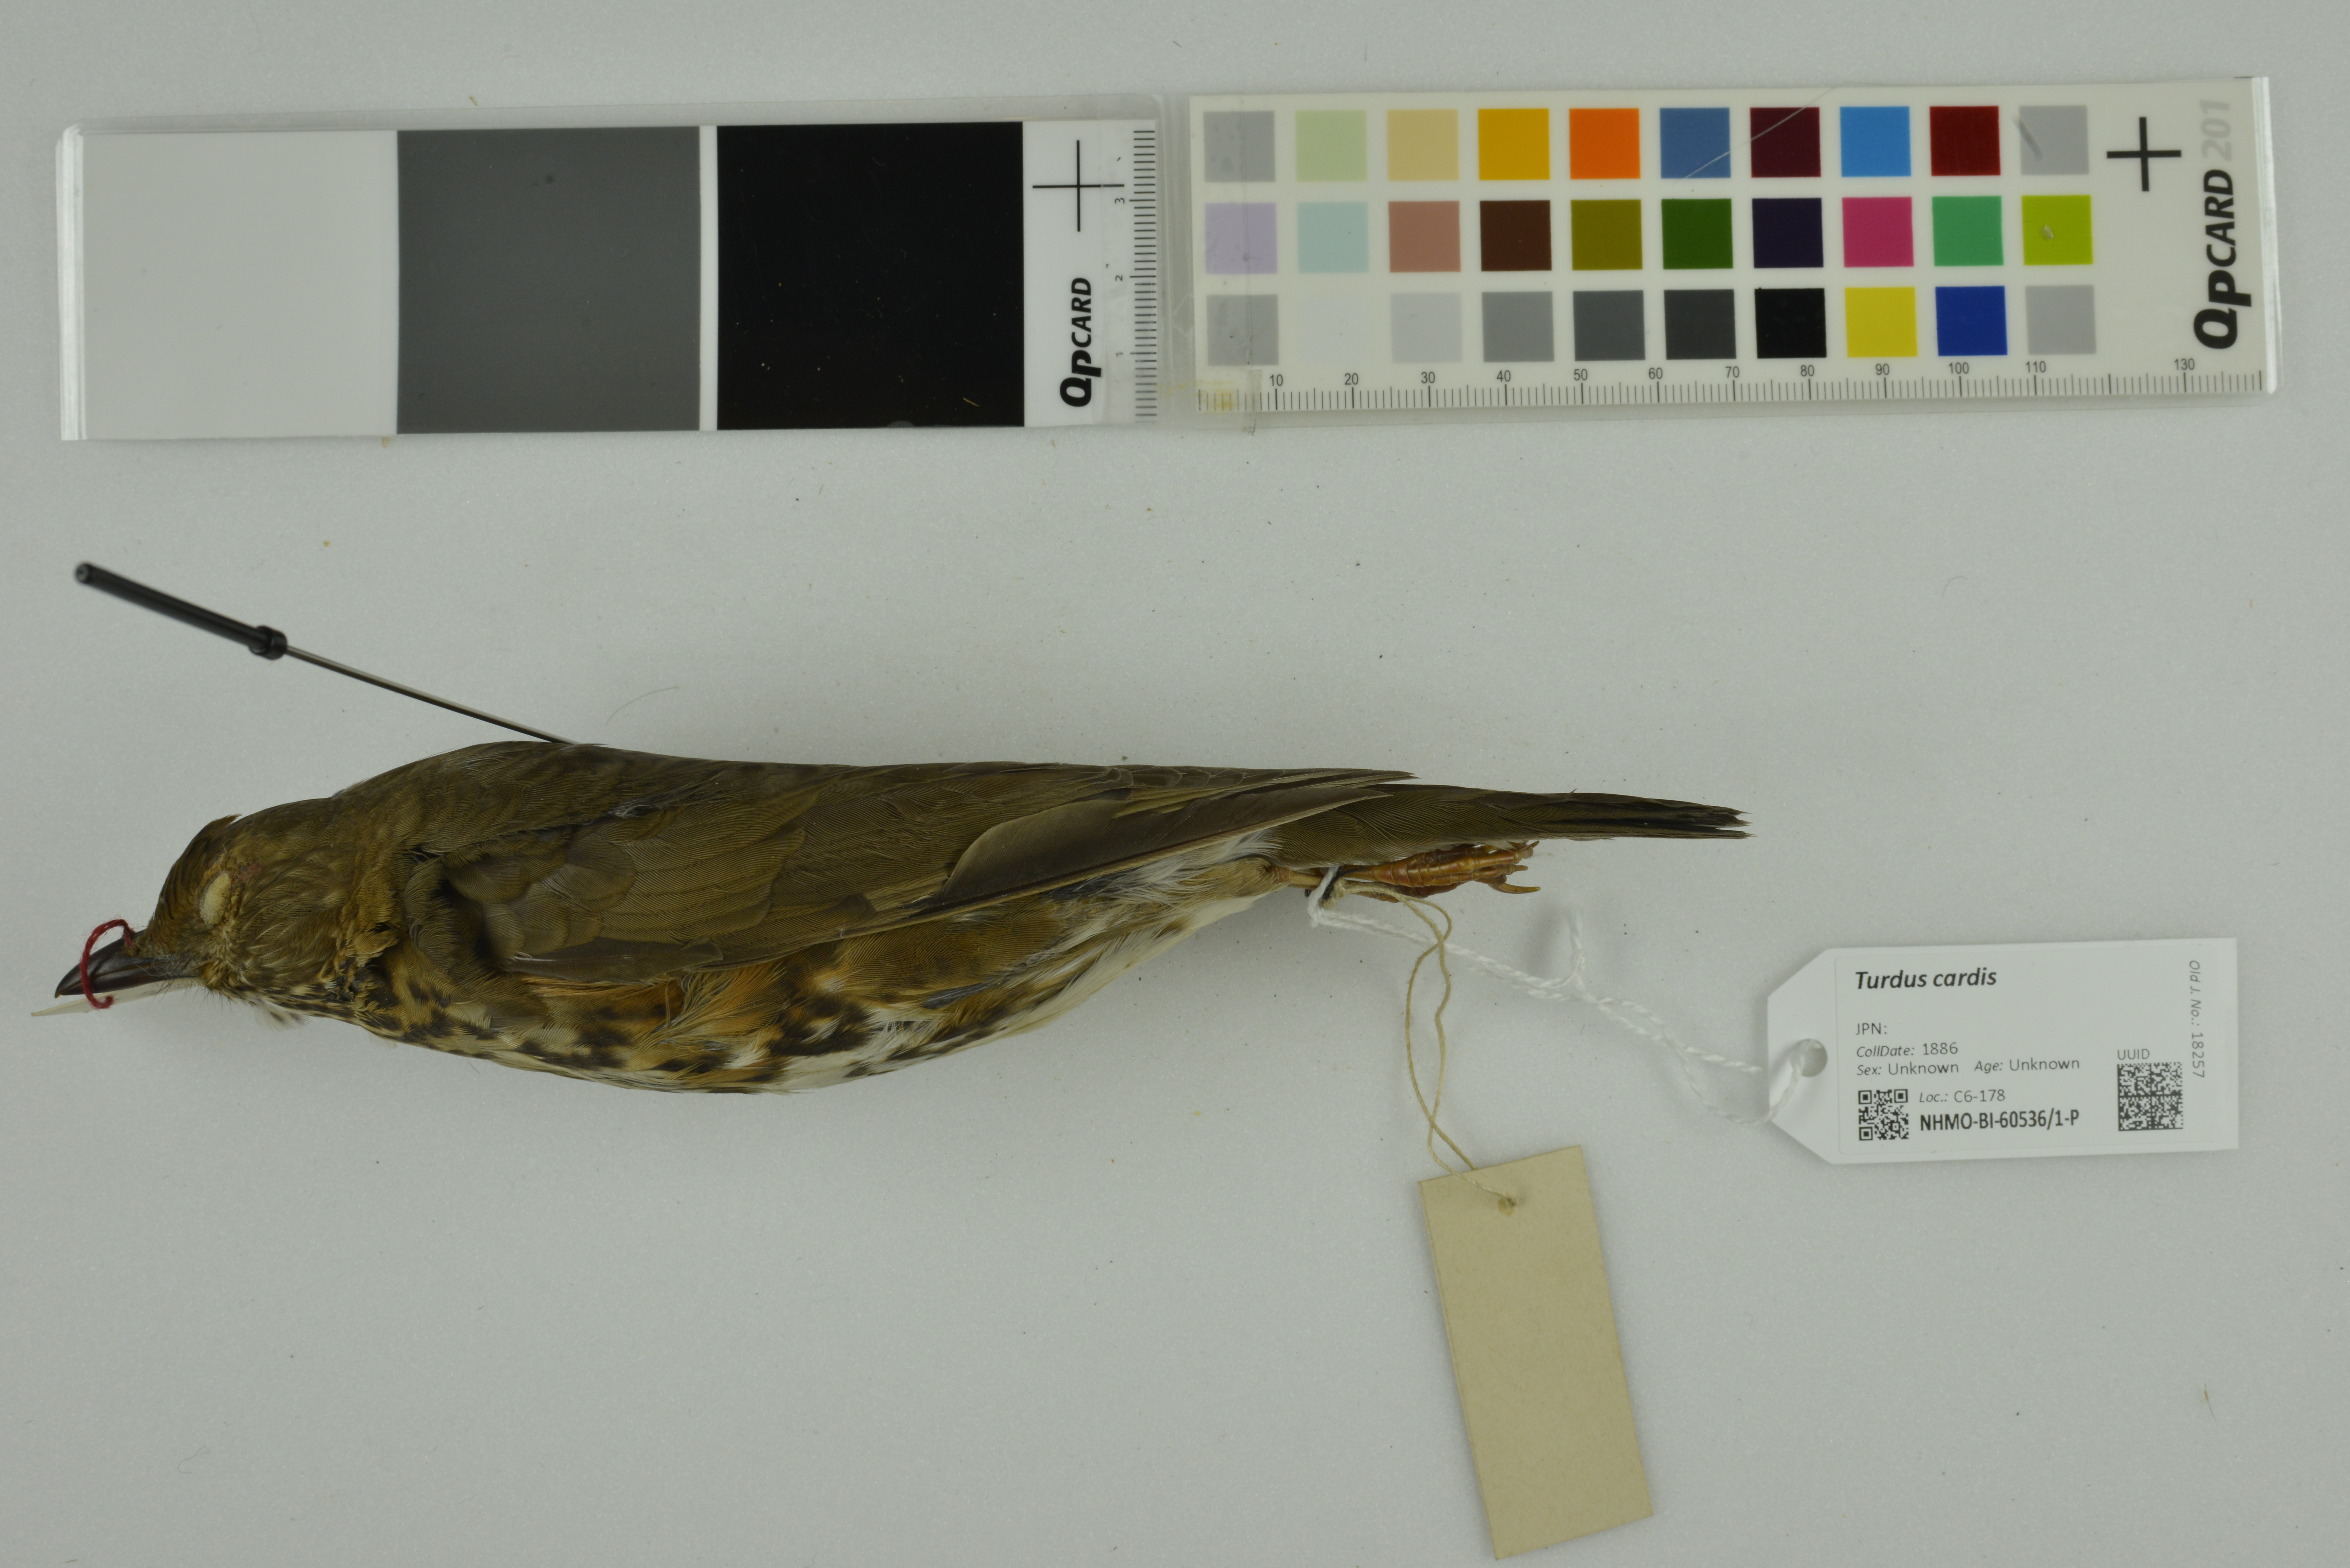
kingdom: Animalia
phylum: Chordata
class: Aves
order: Passeriformes
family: Turdidae
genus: Turdus
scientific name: Turdus cardis
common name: Japanese thrush
